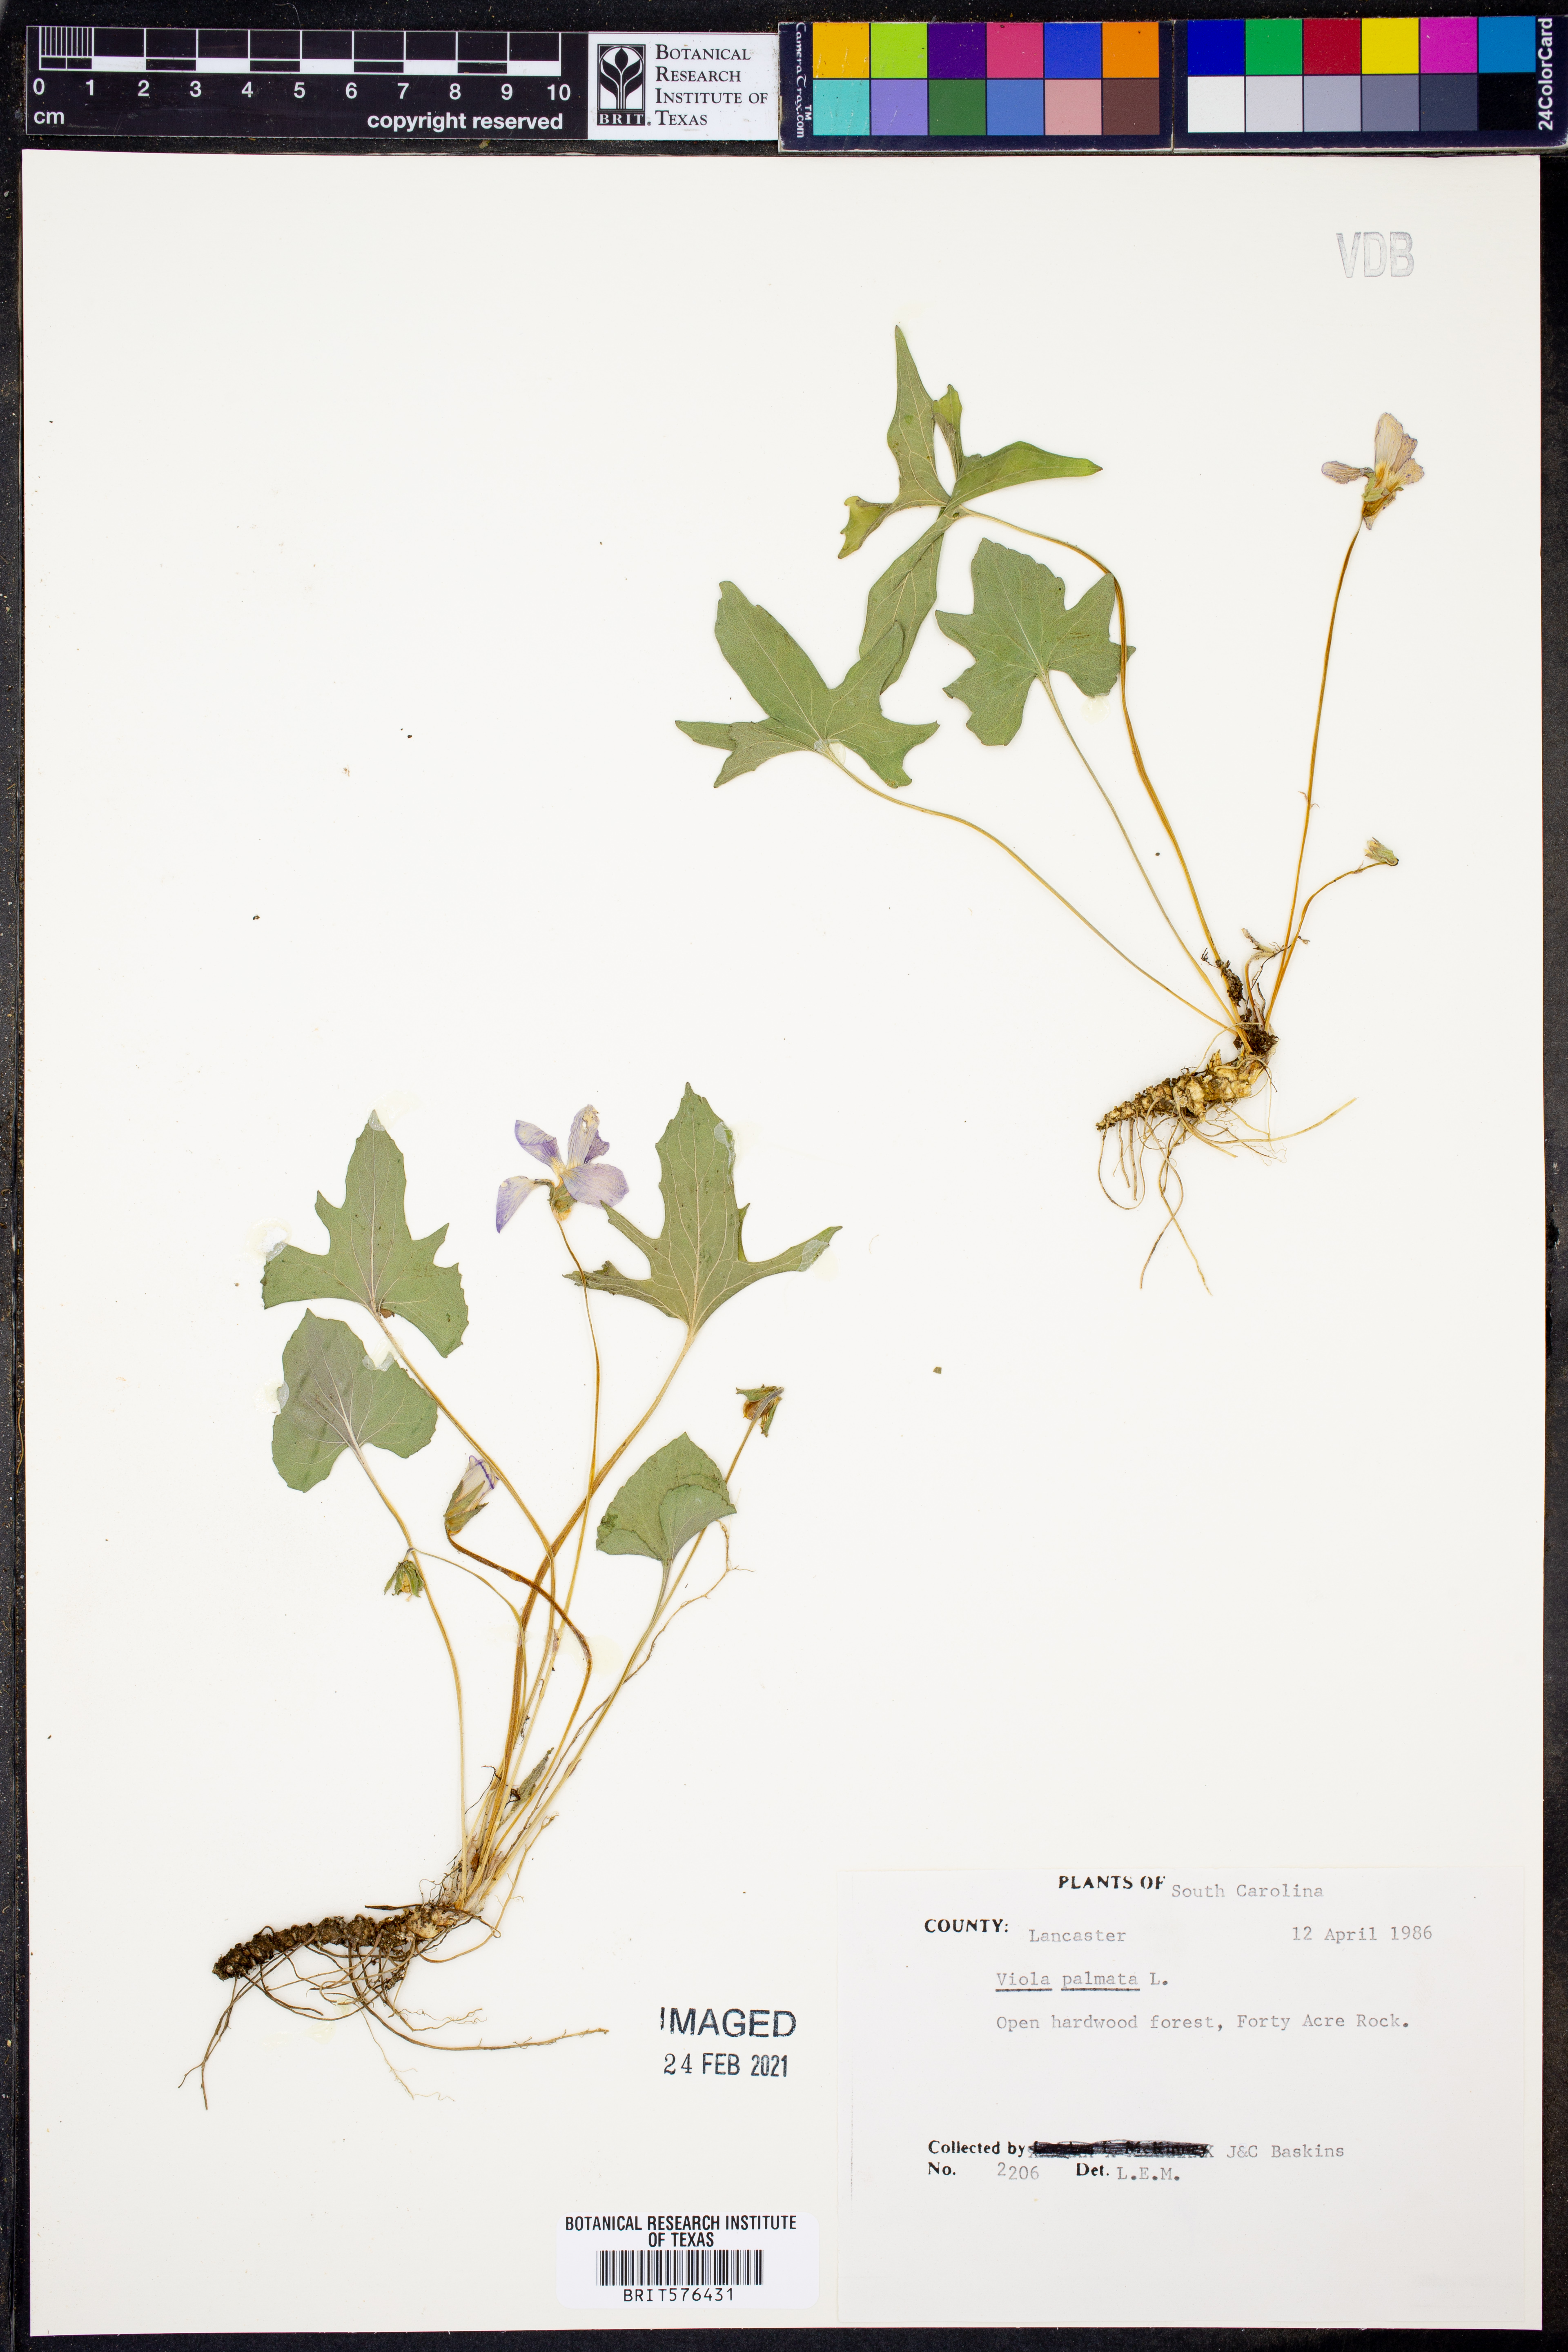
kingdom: Plantae
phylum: Tracheophyta
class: Magnoliopsida
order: Malpighiales
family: Violaceae
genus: Viola
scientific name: Viola palmata
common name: Early blue violet
